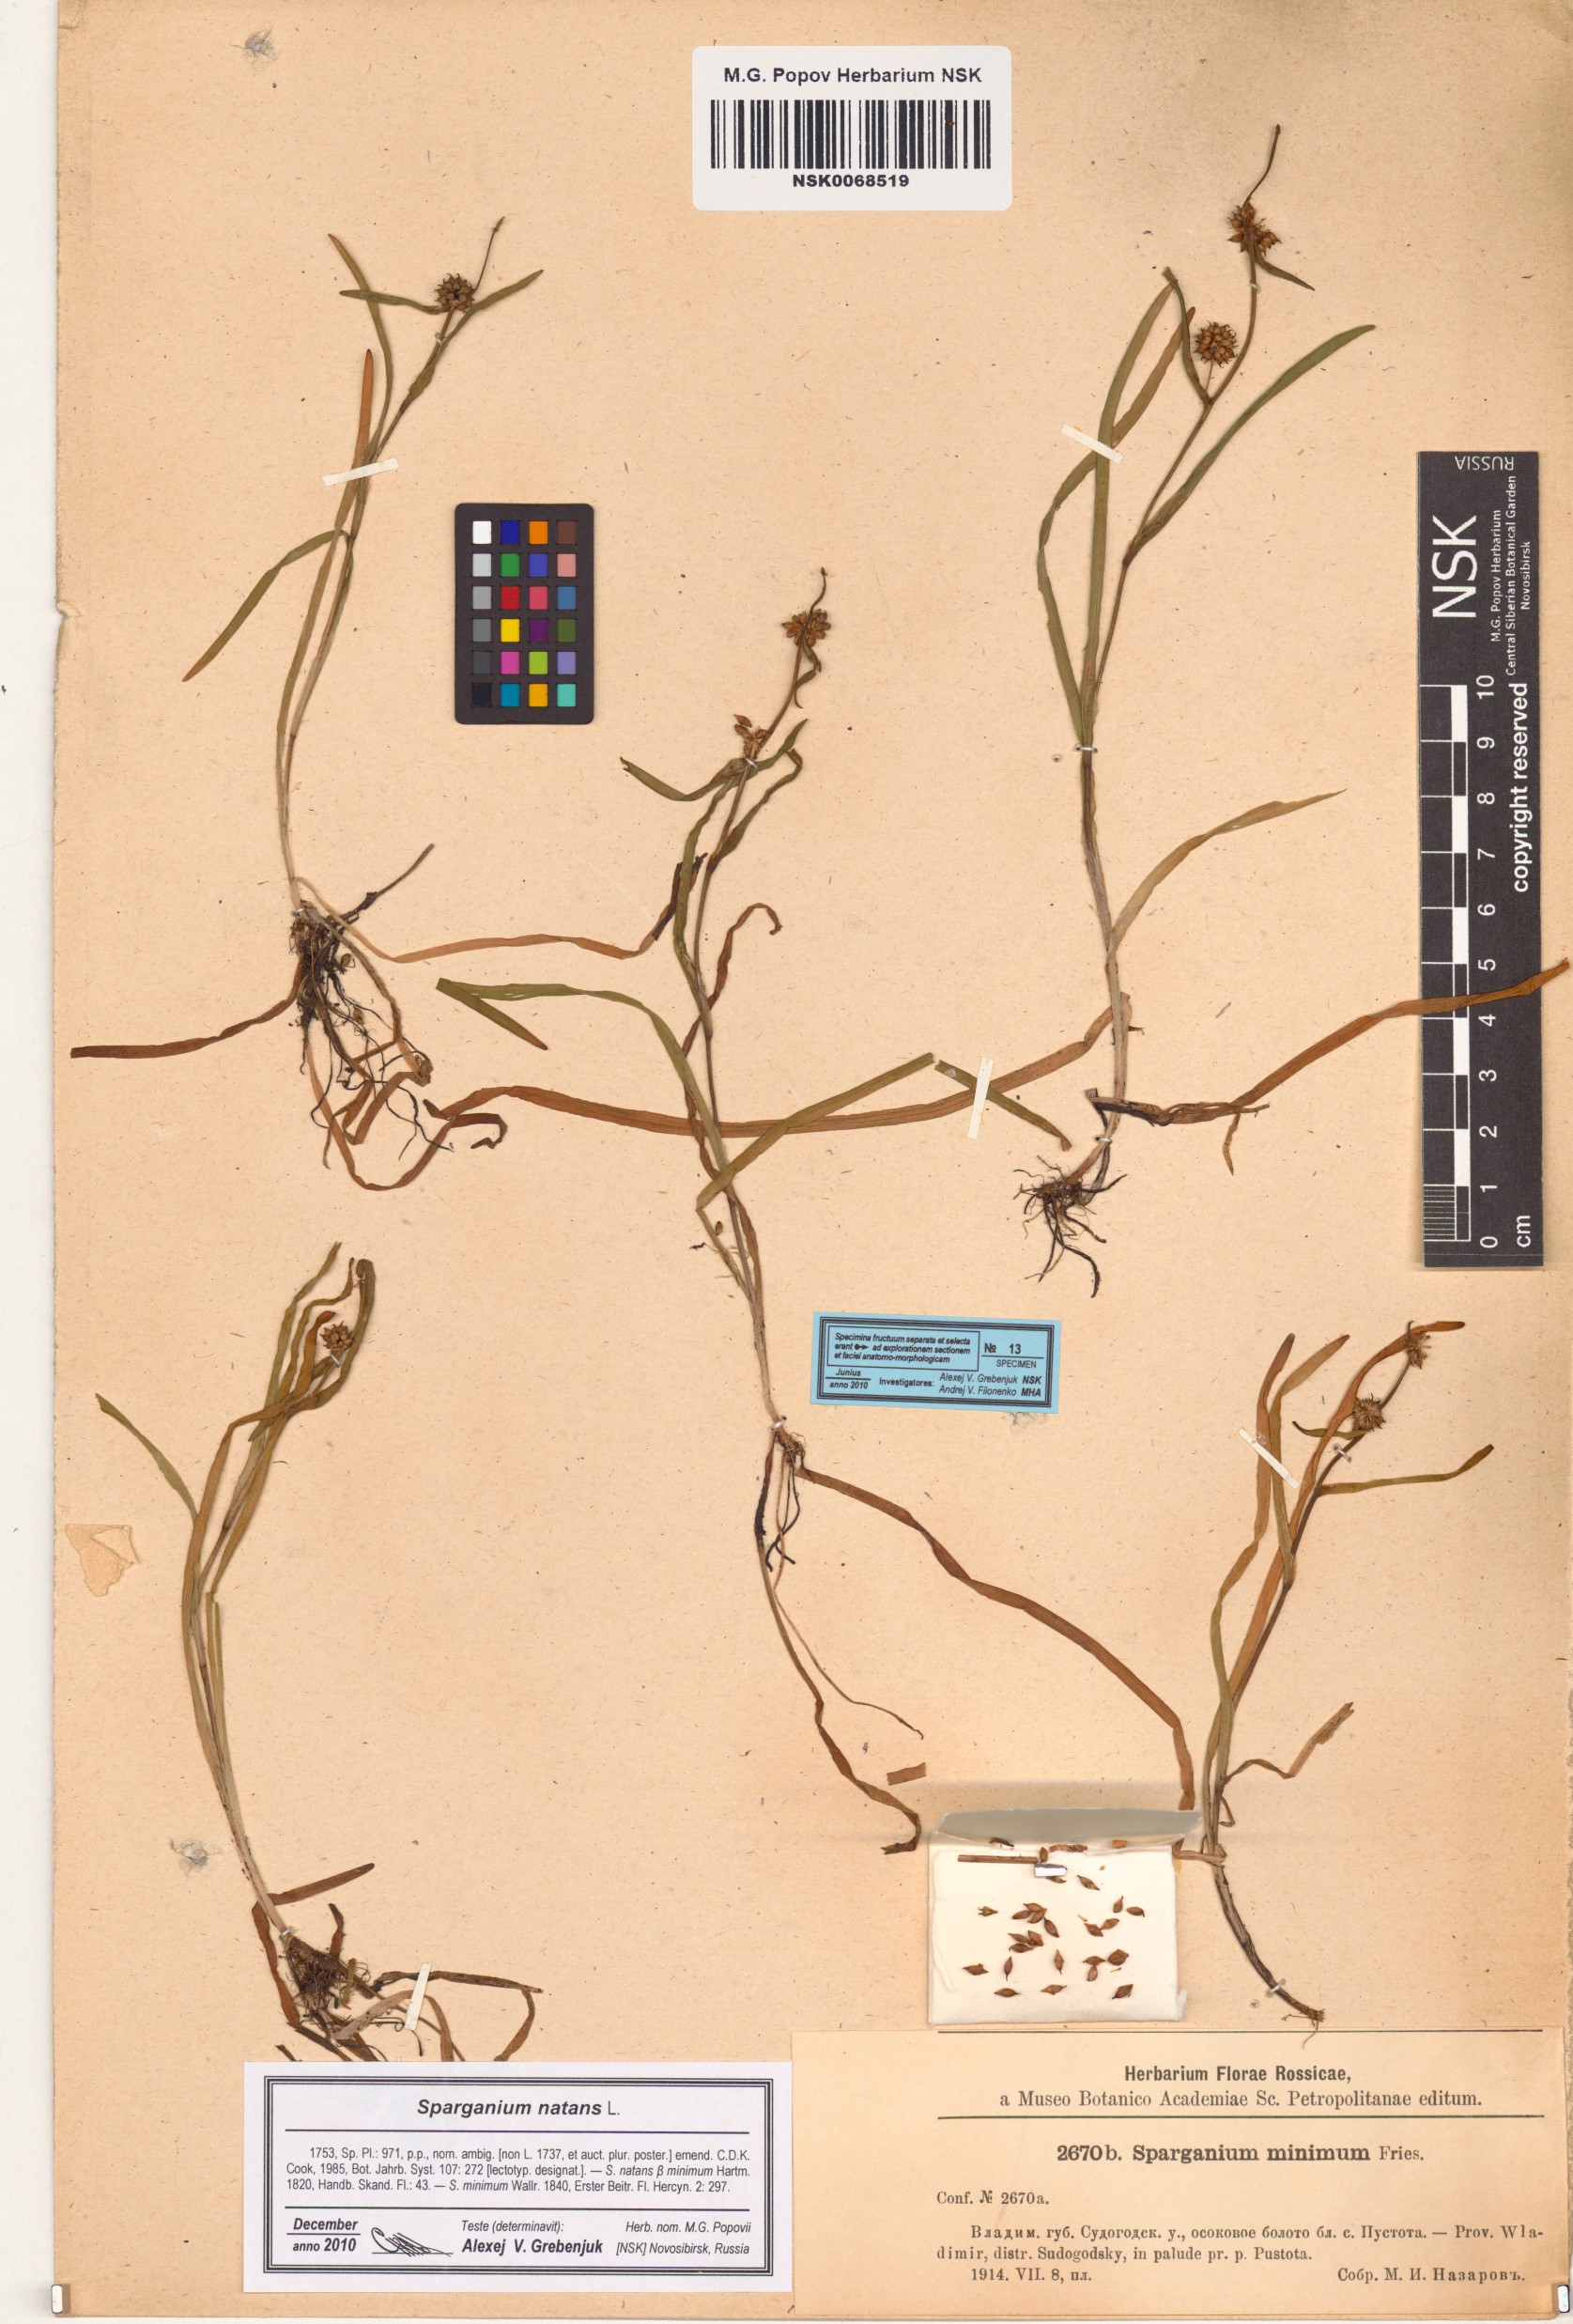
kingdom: Plantae
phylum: Tracheophyta
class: Liliopsida
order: Poales
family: Typhaceae
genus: Sparganium
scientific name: Sparganium natans
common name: Least bur-reed
